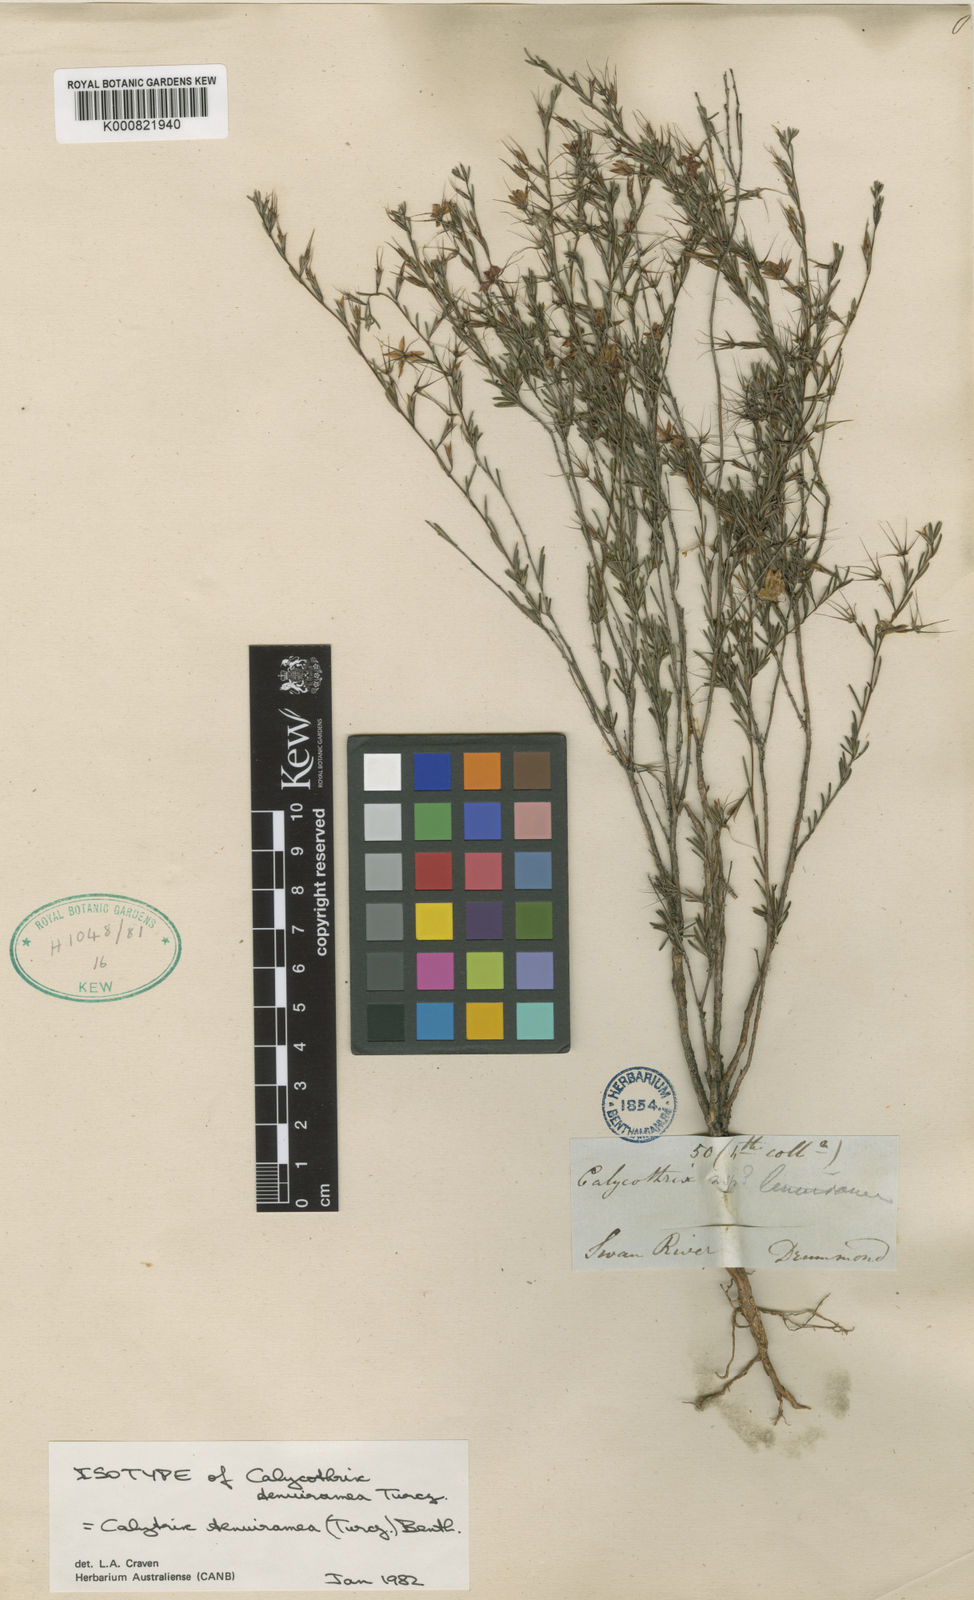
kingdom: Plantae
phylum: Tracheophyta
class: Magnoliopsida
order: Myrtales
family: Myrtaceae
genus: Calytrix
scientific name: Calytrix tenuiramea
